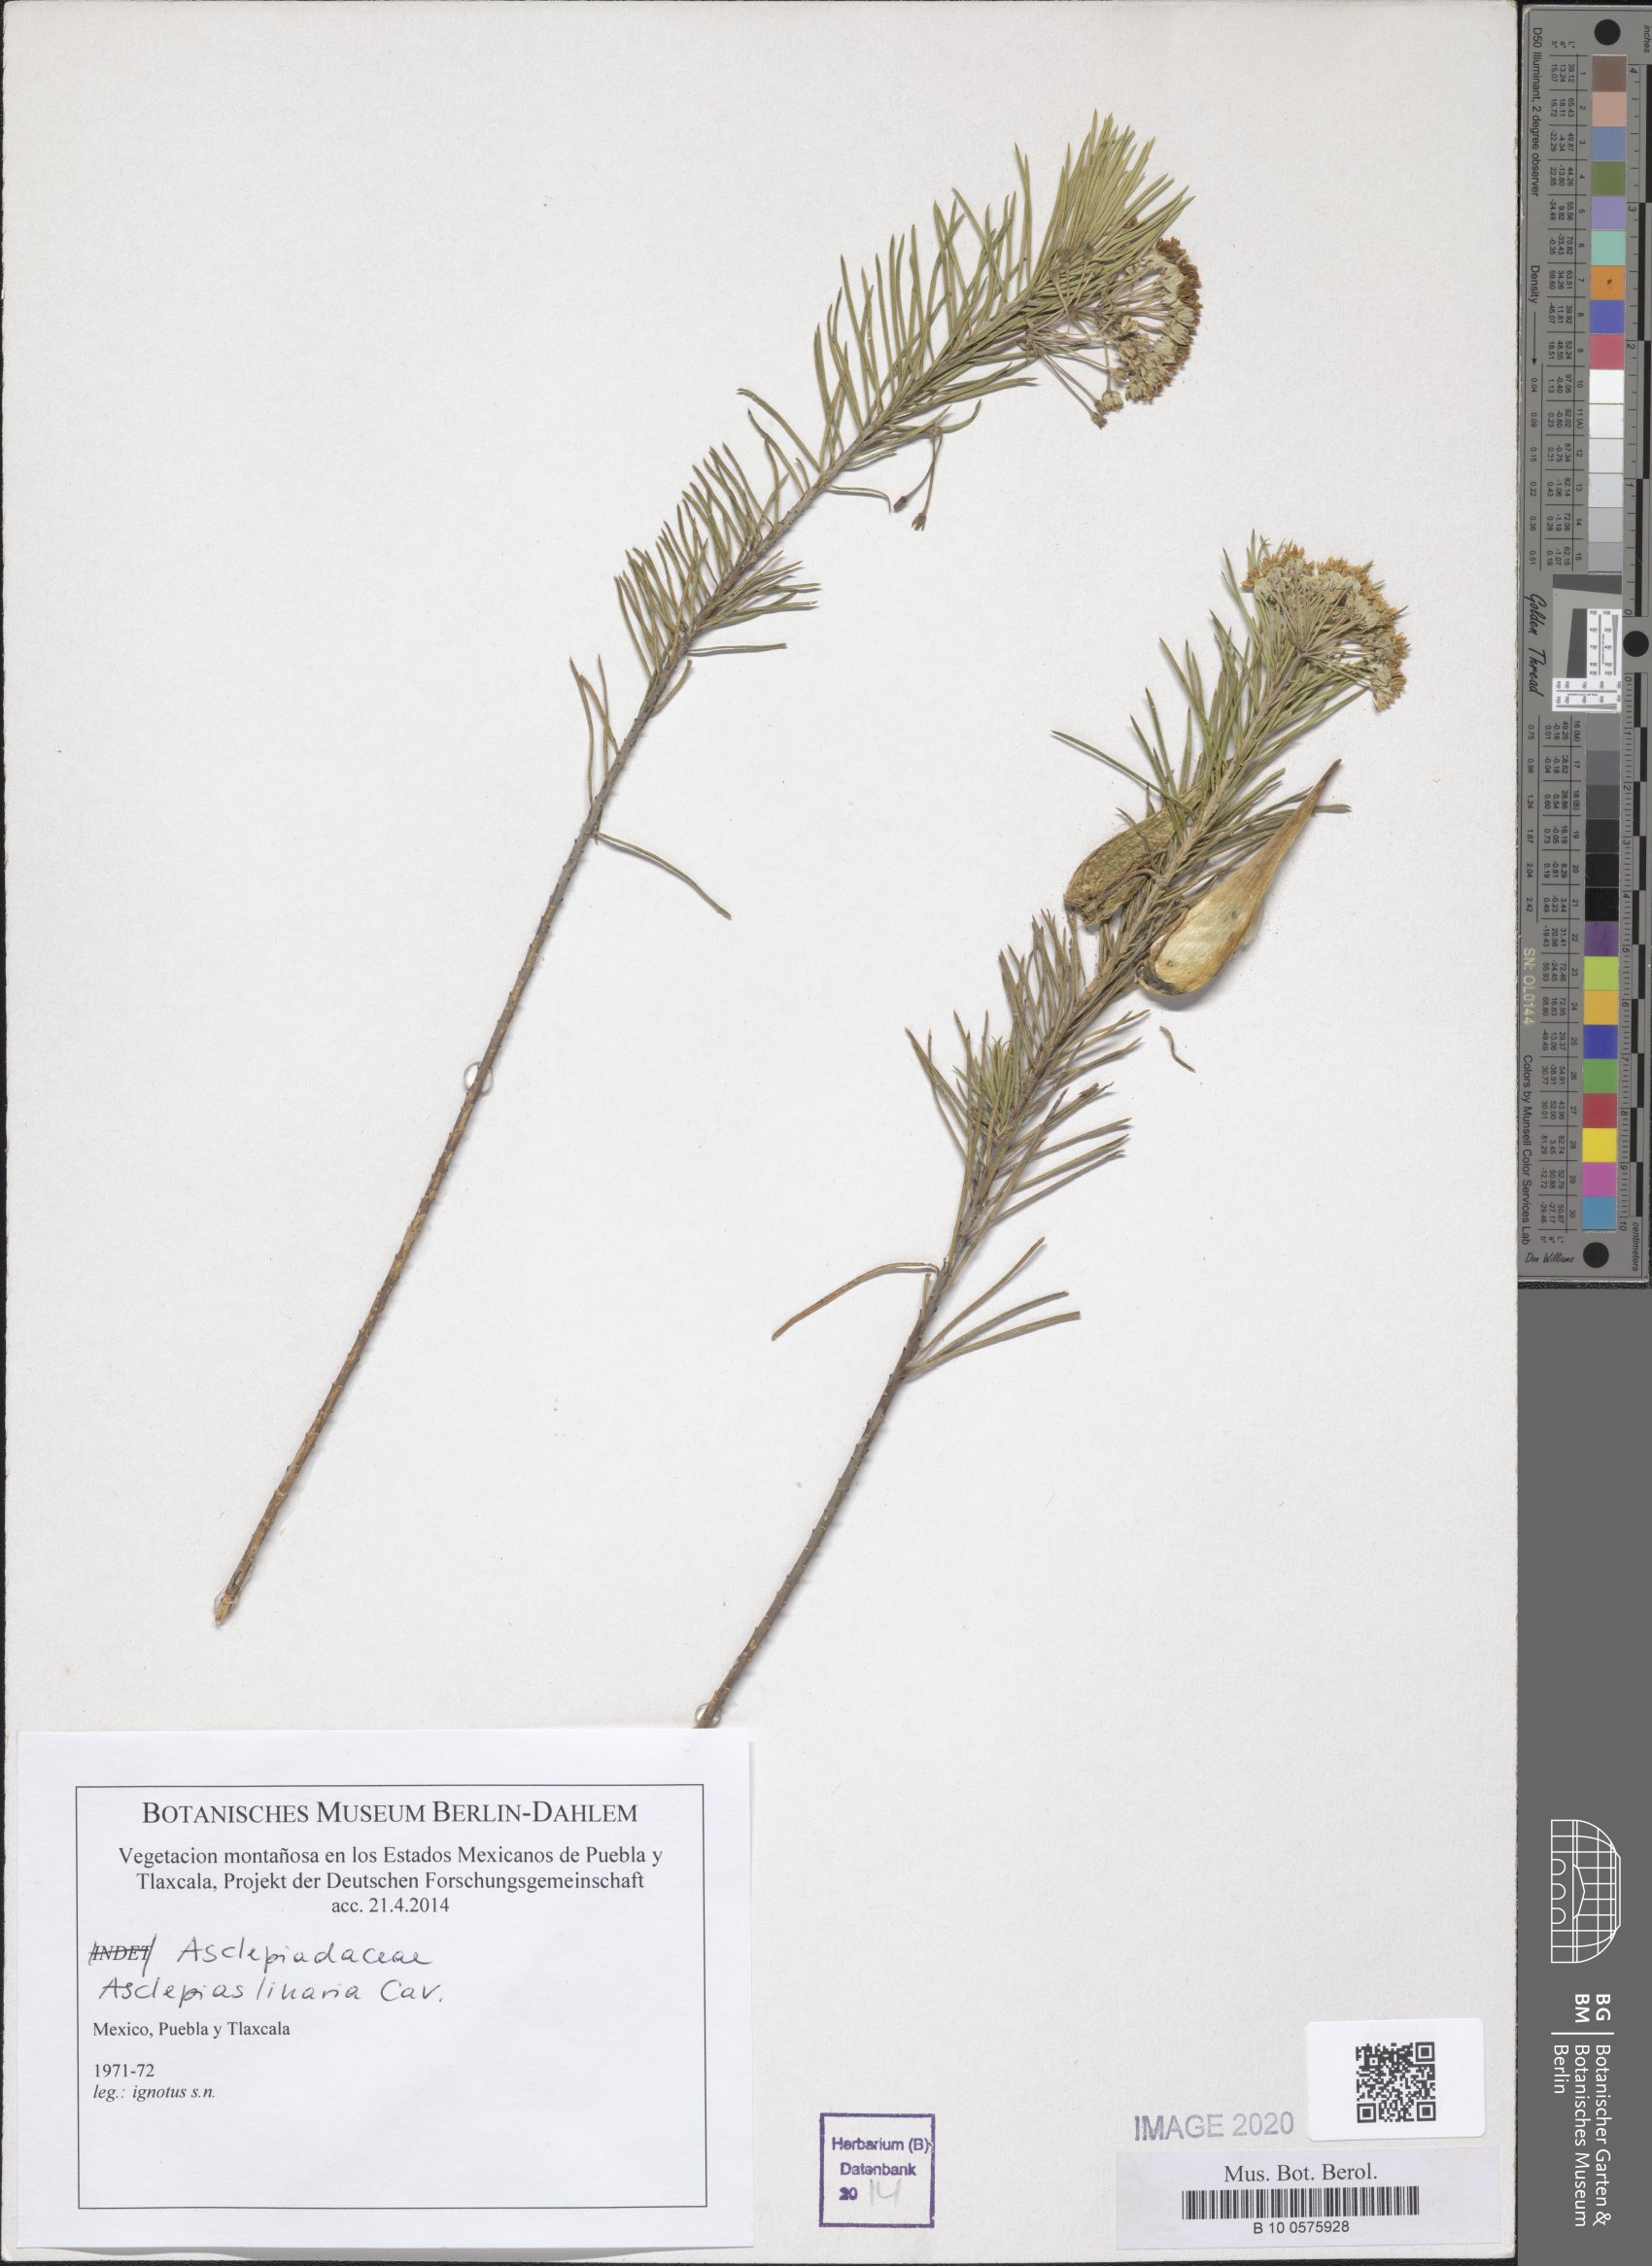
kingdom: Plantae
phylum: Tracheophyta
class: Magnoliopsida
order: Gentianales
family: Apocynaceae
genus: Asclepias
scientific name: Asclepias linaria
